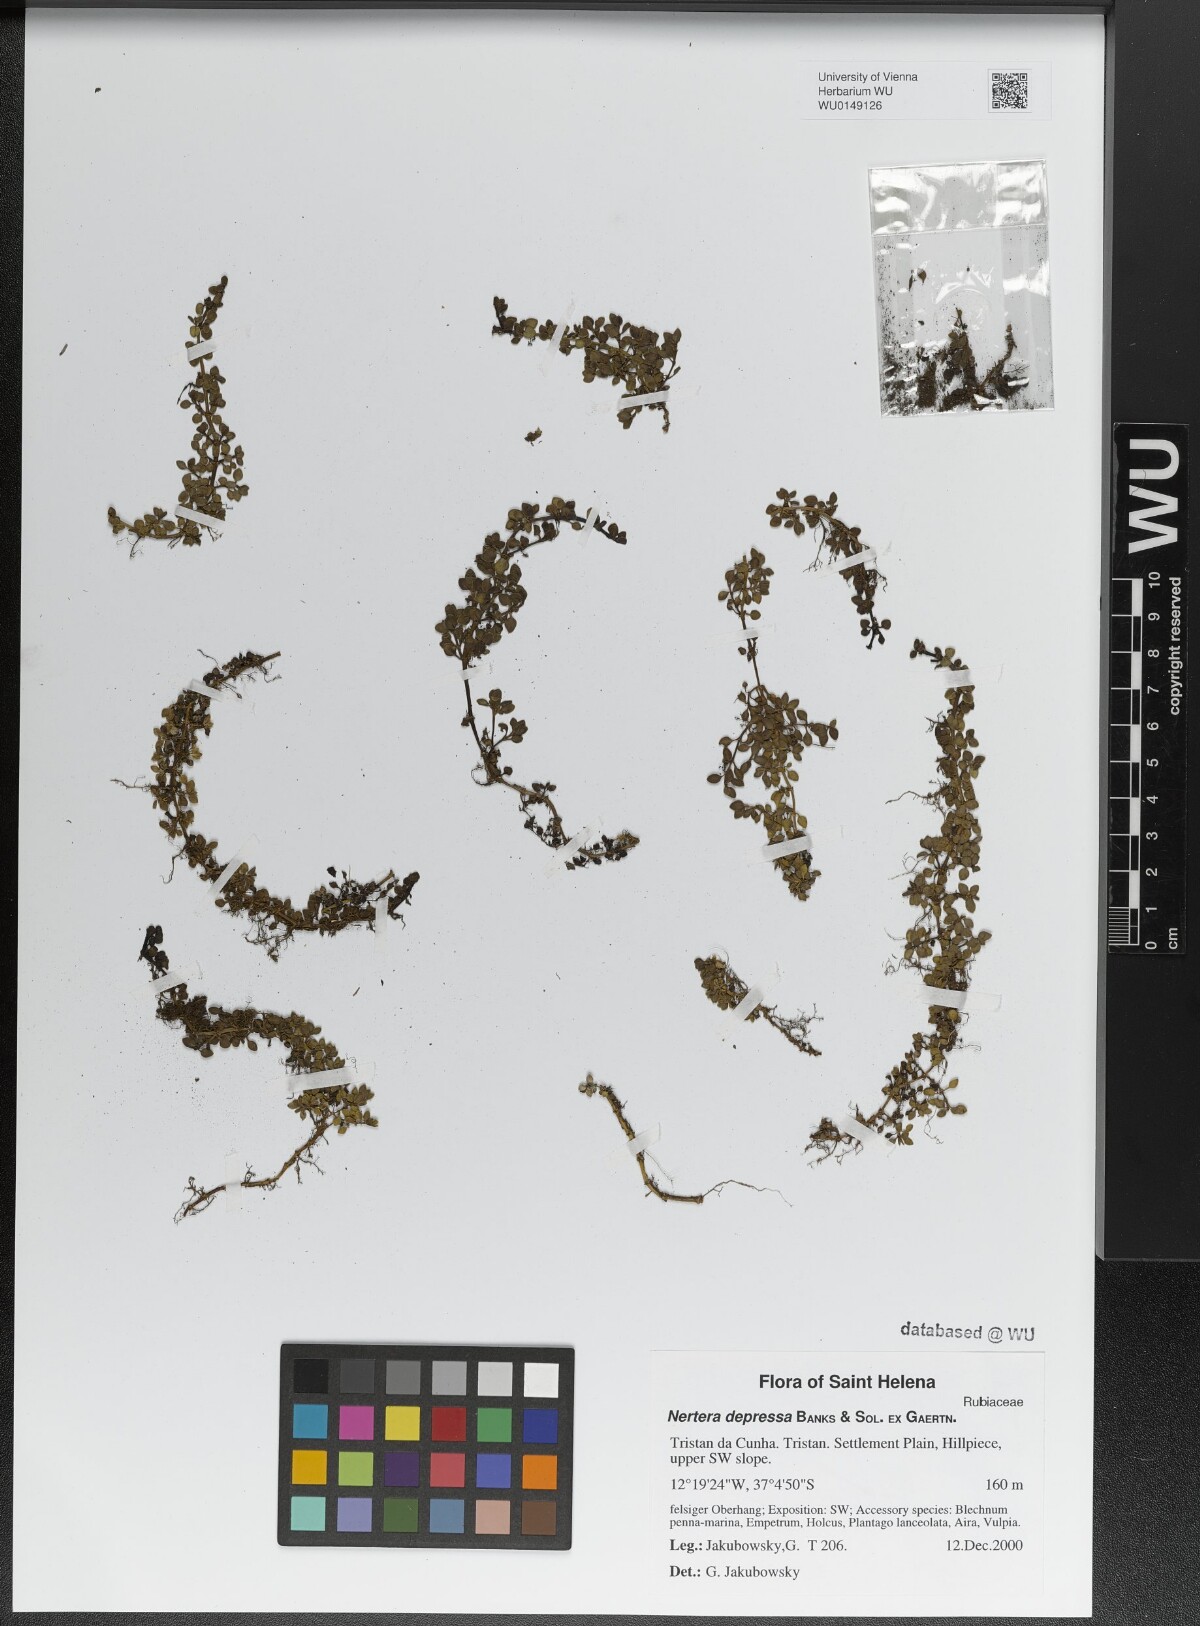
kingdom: Plantae
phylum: Tracheophyta
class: Magnoliopsida
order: Gentianales
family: Rubiaceae
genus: Nertera
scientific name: Nertera granadensis
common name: Beadplant
